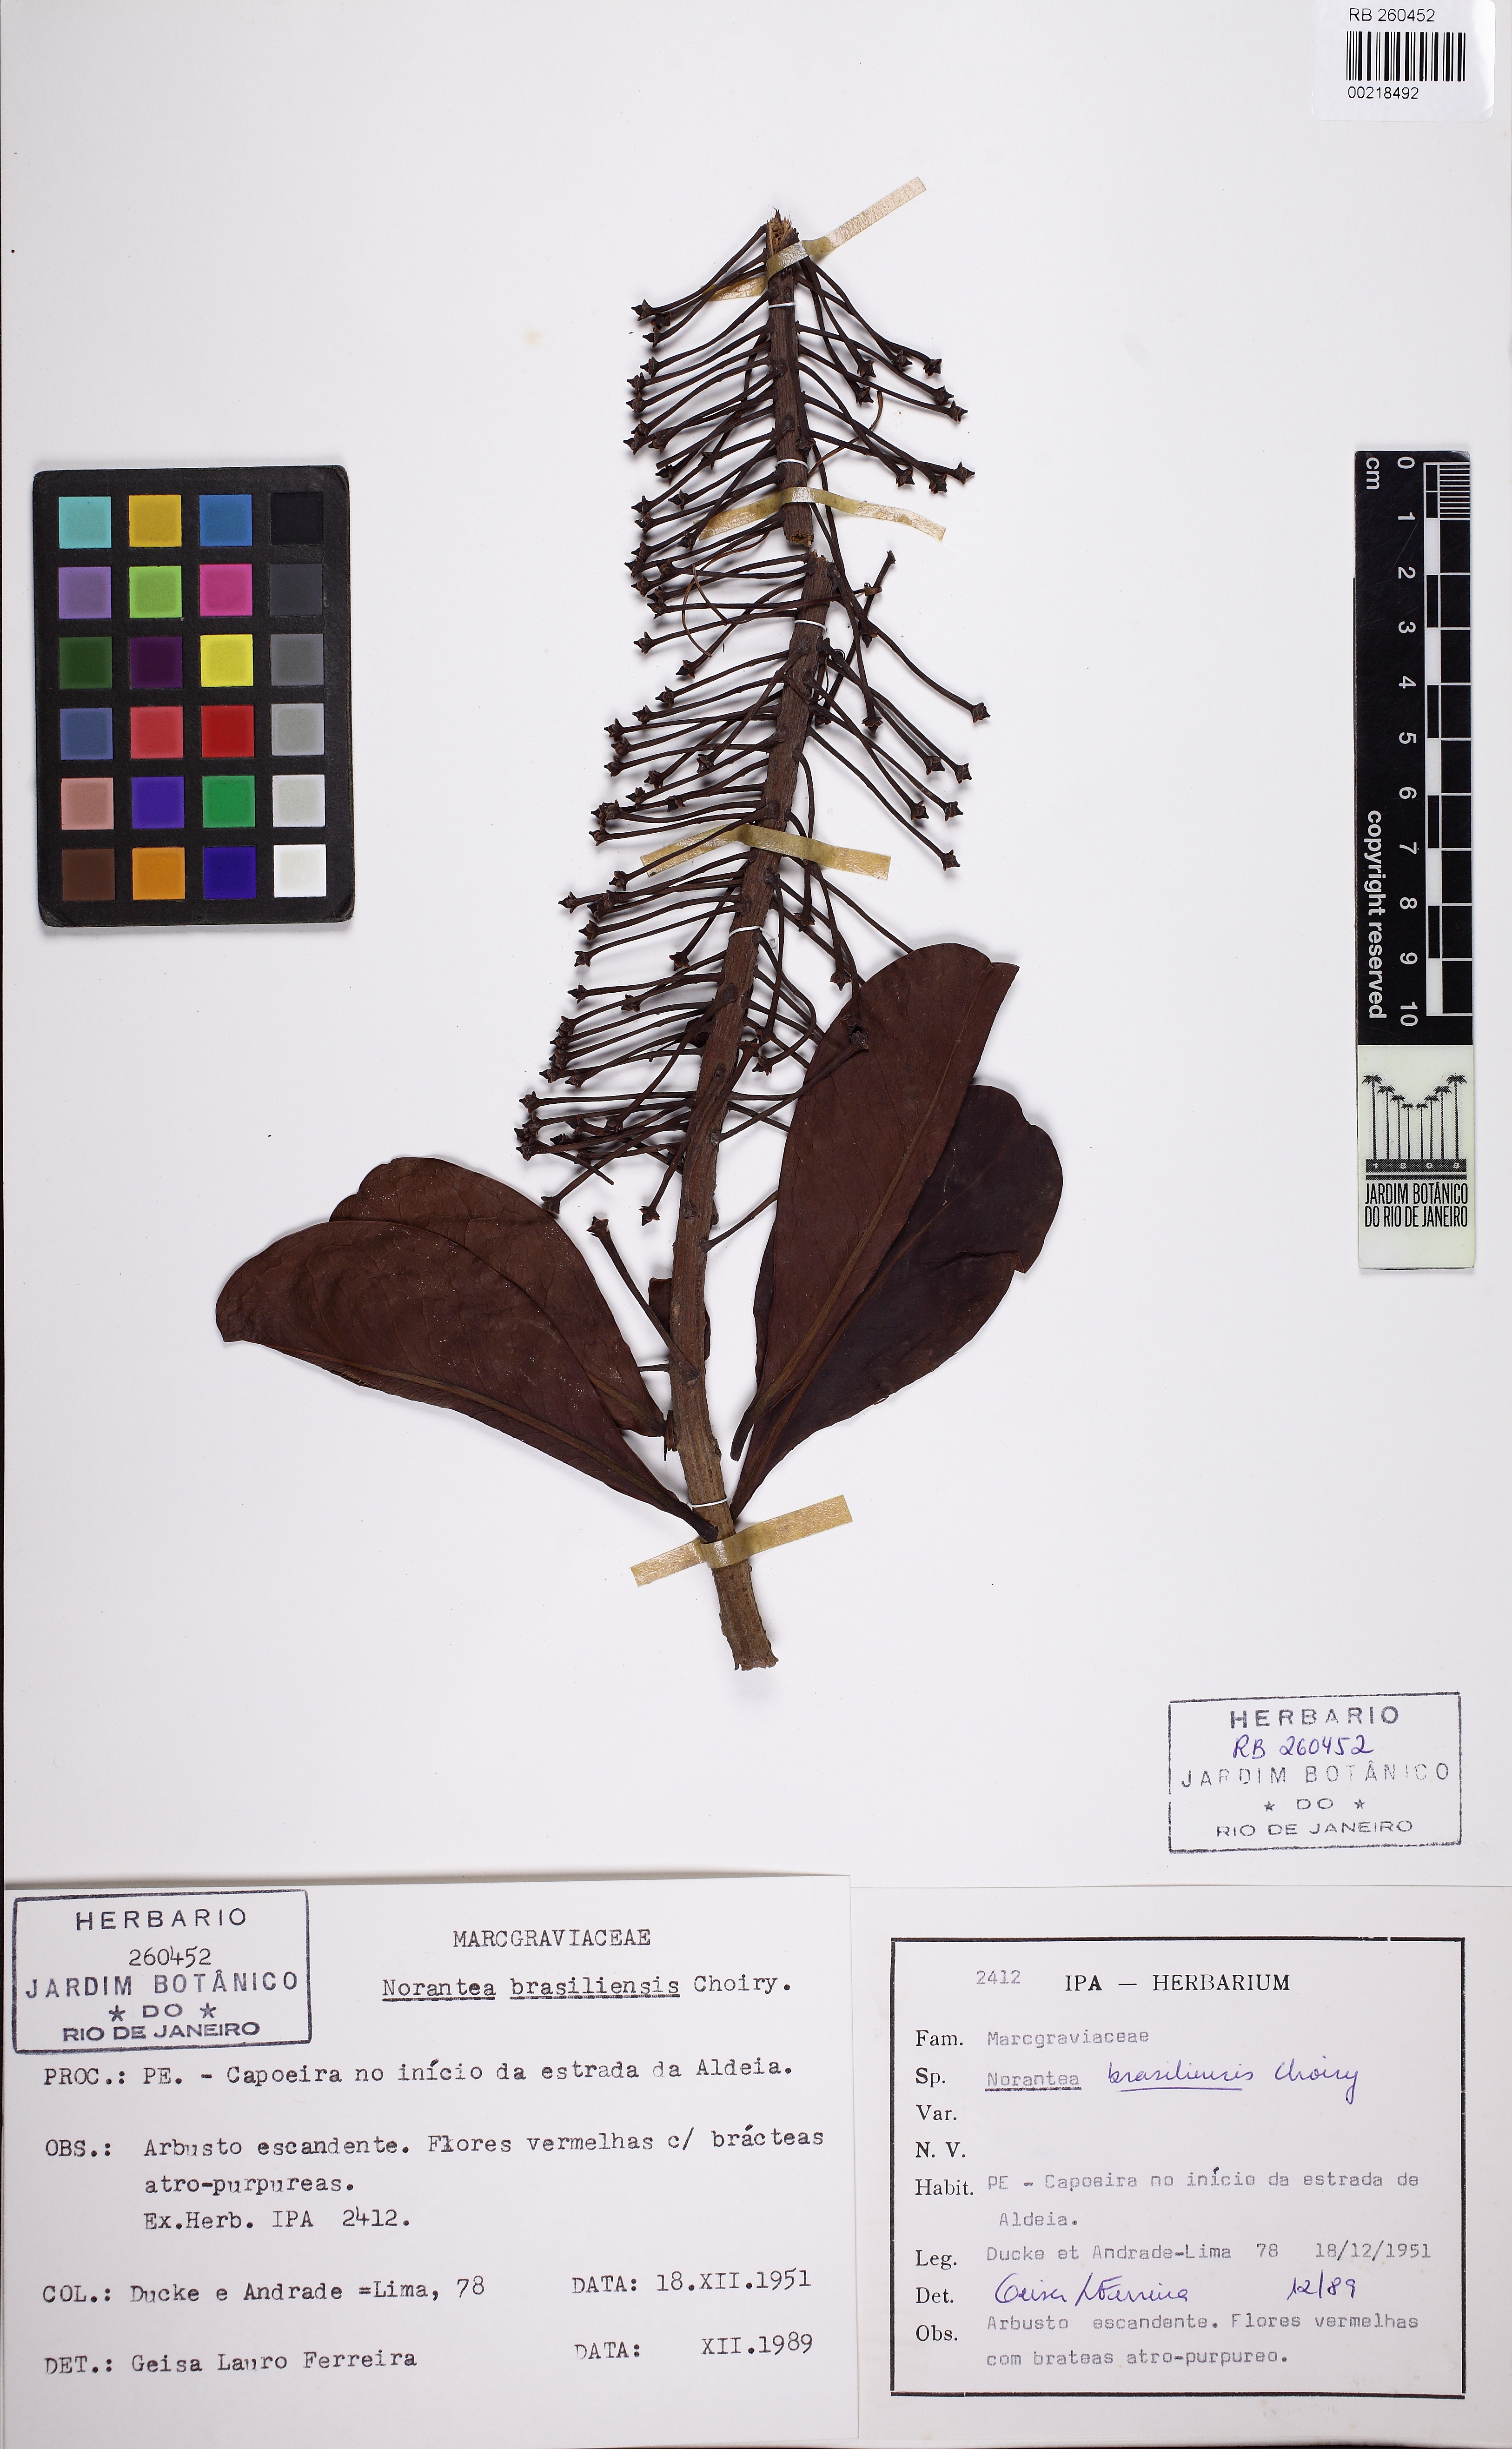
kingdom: Plantae
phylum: Tracheophyta
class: Magnoliopsida
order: Ericales
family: Marcgraviaceae
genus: Schwartzia
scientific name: Schwartzia brasiliensis
